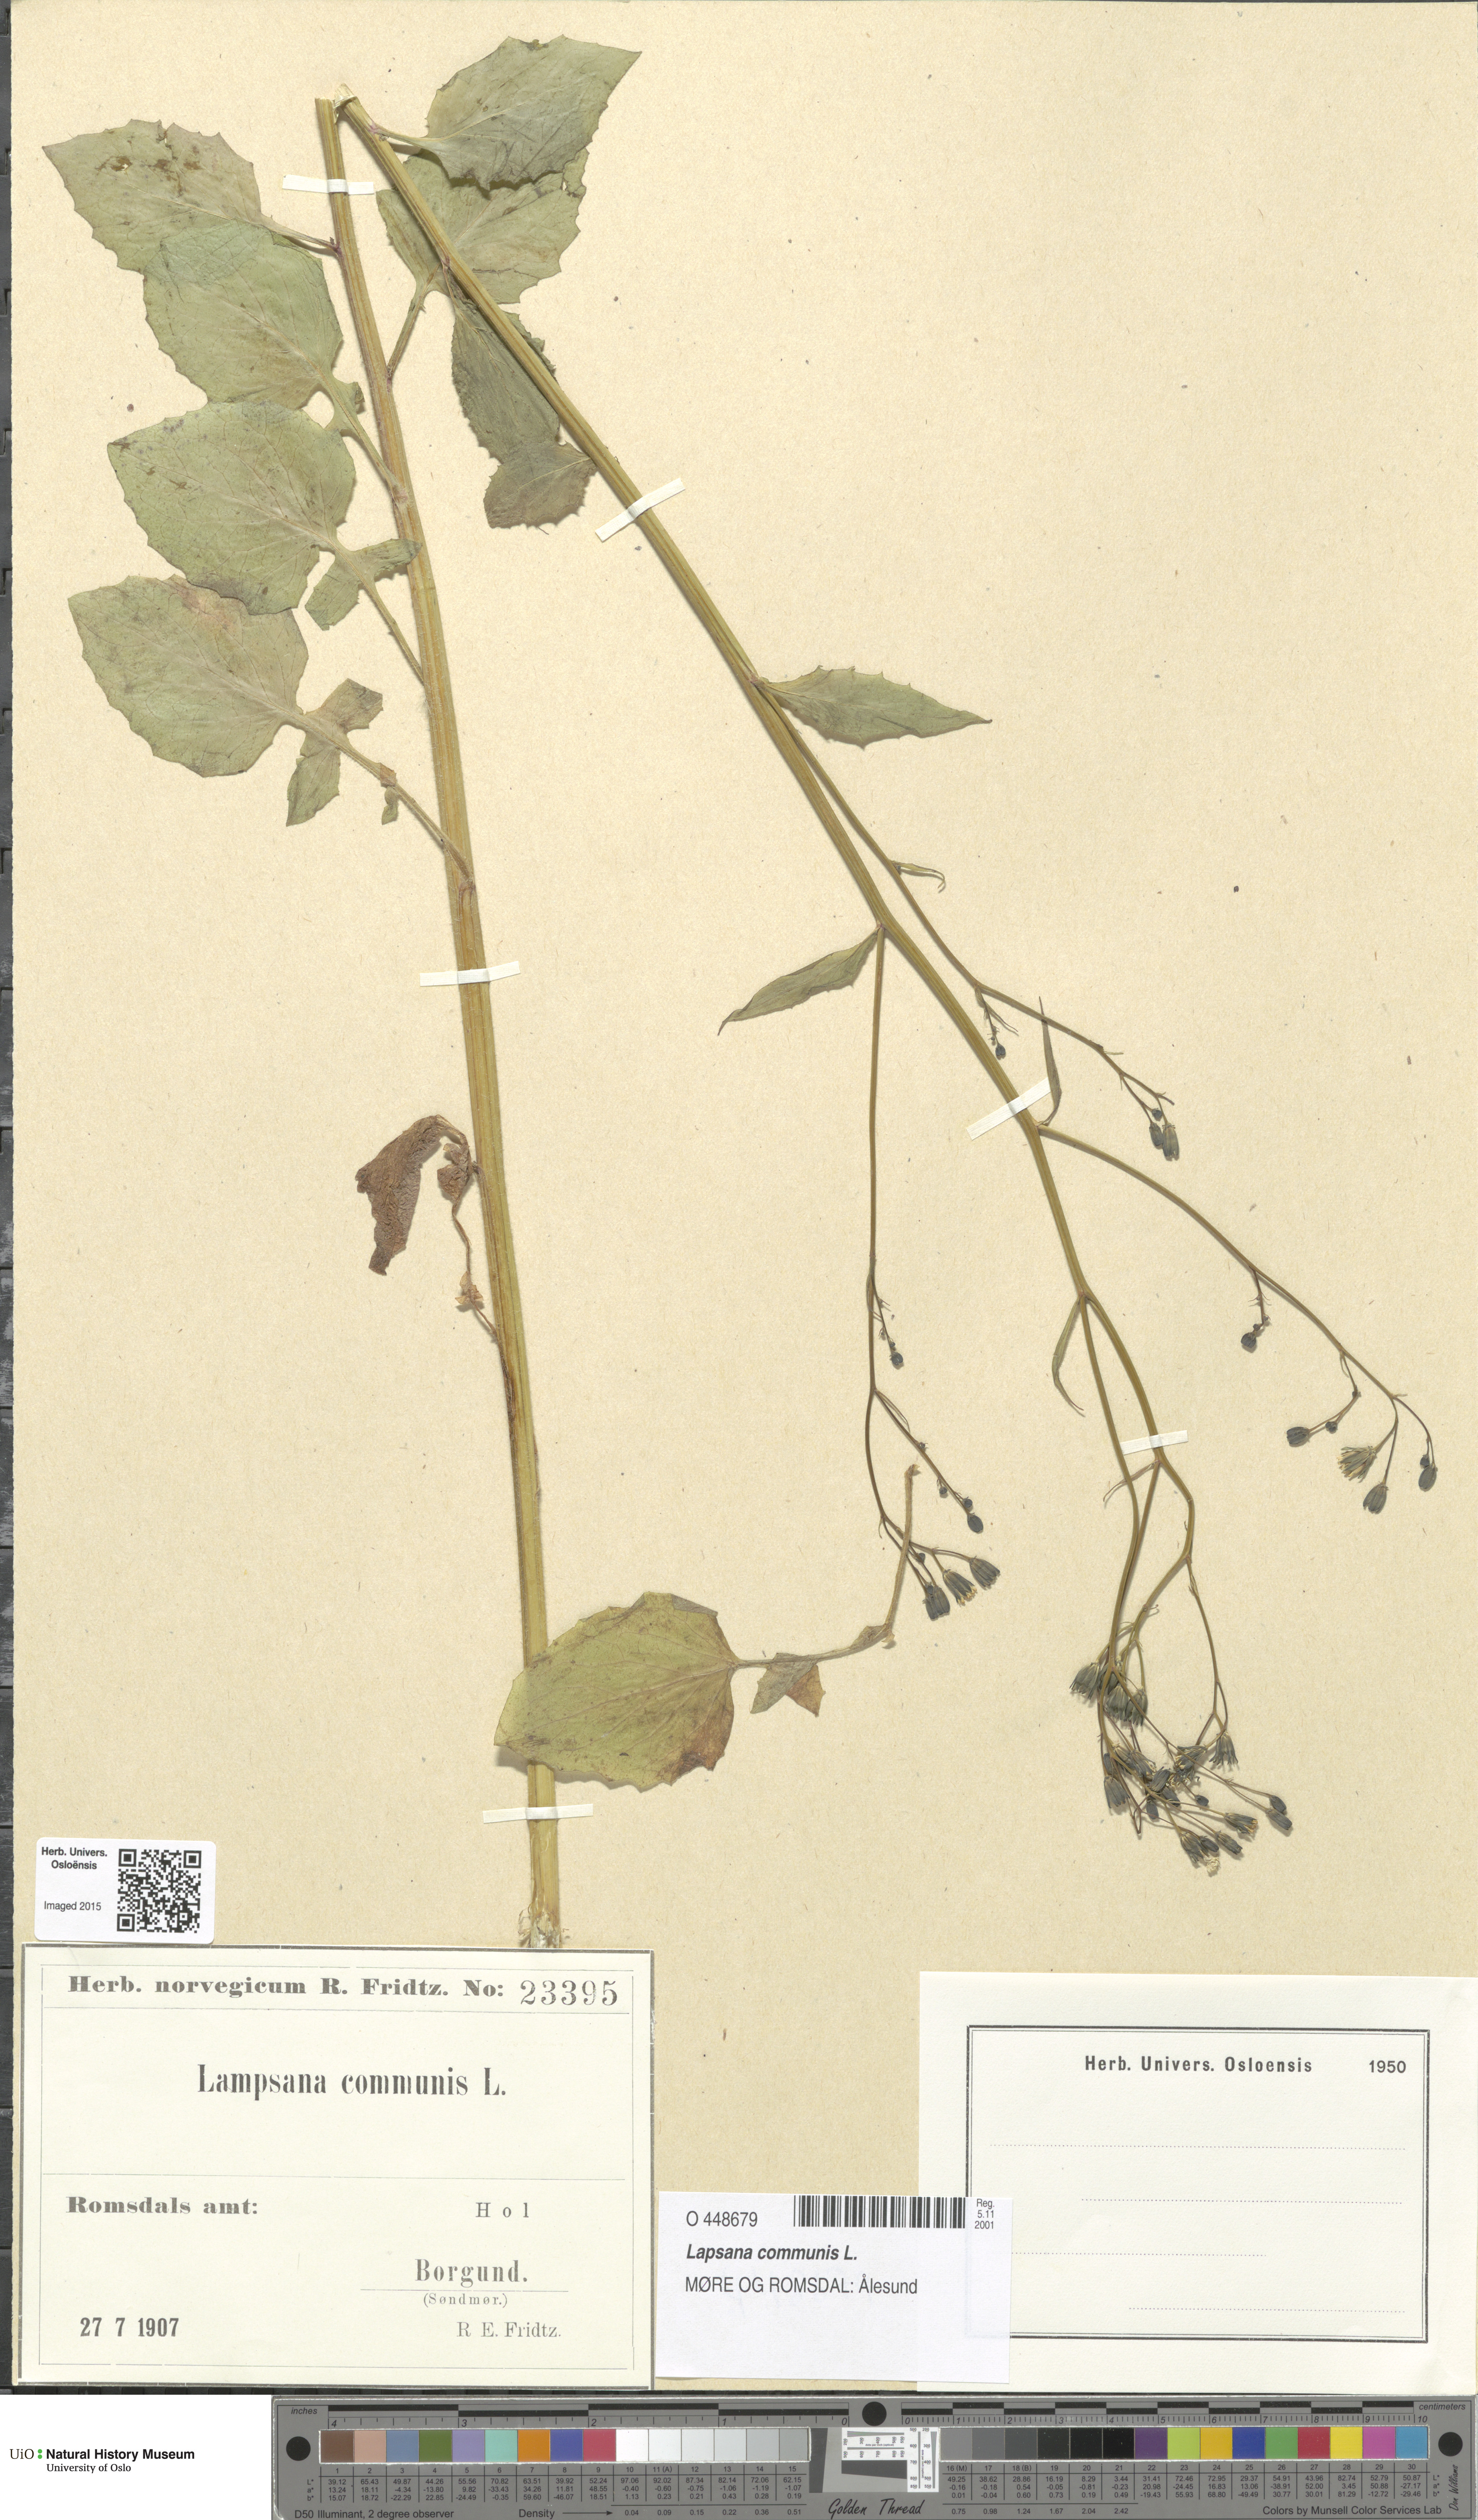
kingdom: Plantae
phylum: Tracheophyta
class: Magnoliopsida
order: Asterales
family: Asteraceae
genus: Lapsana
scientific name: Lapsana communis
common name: Nipplewort
